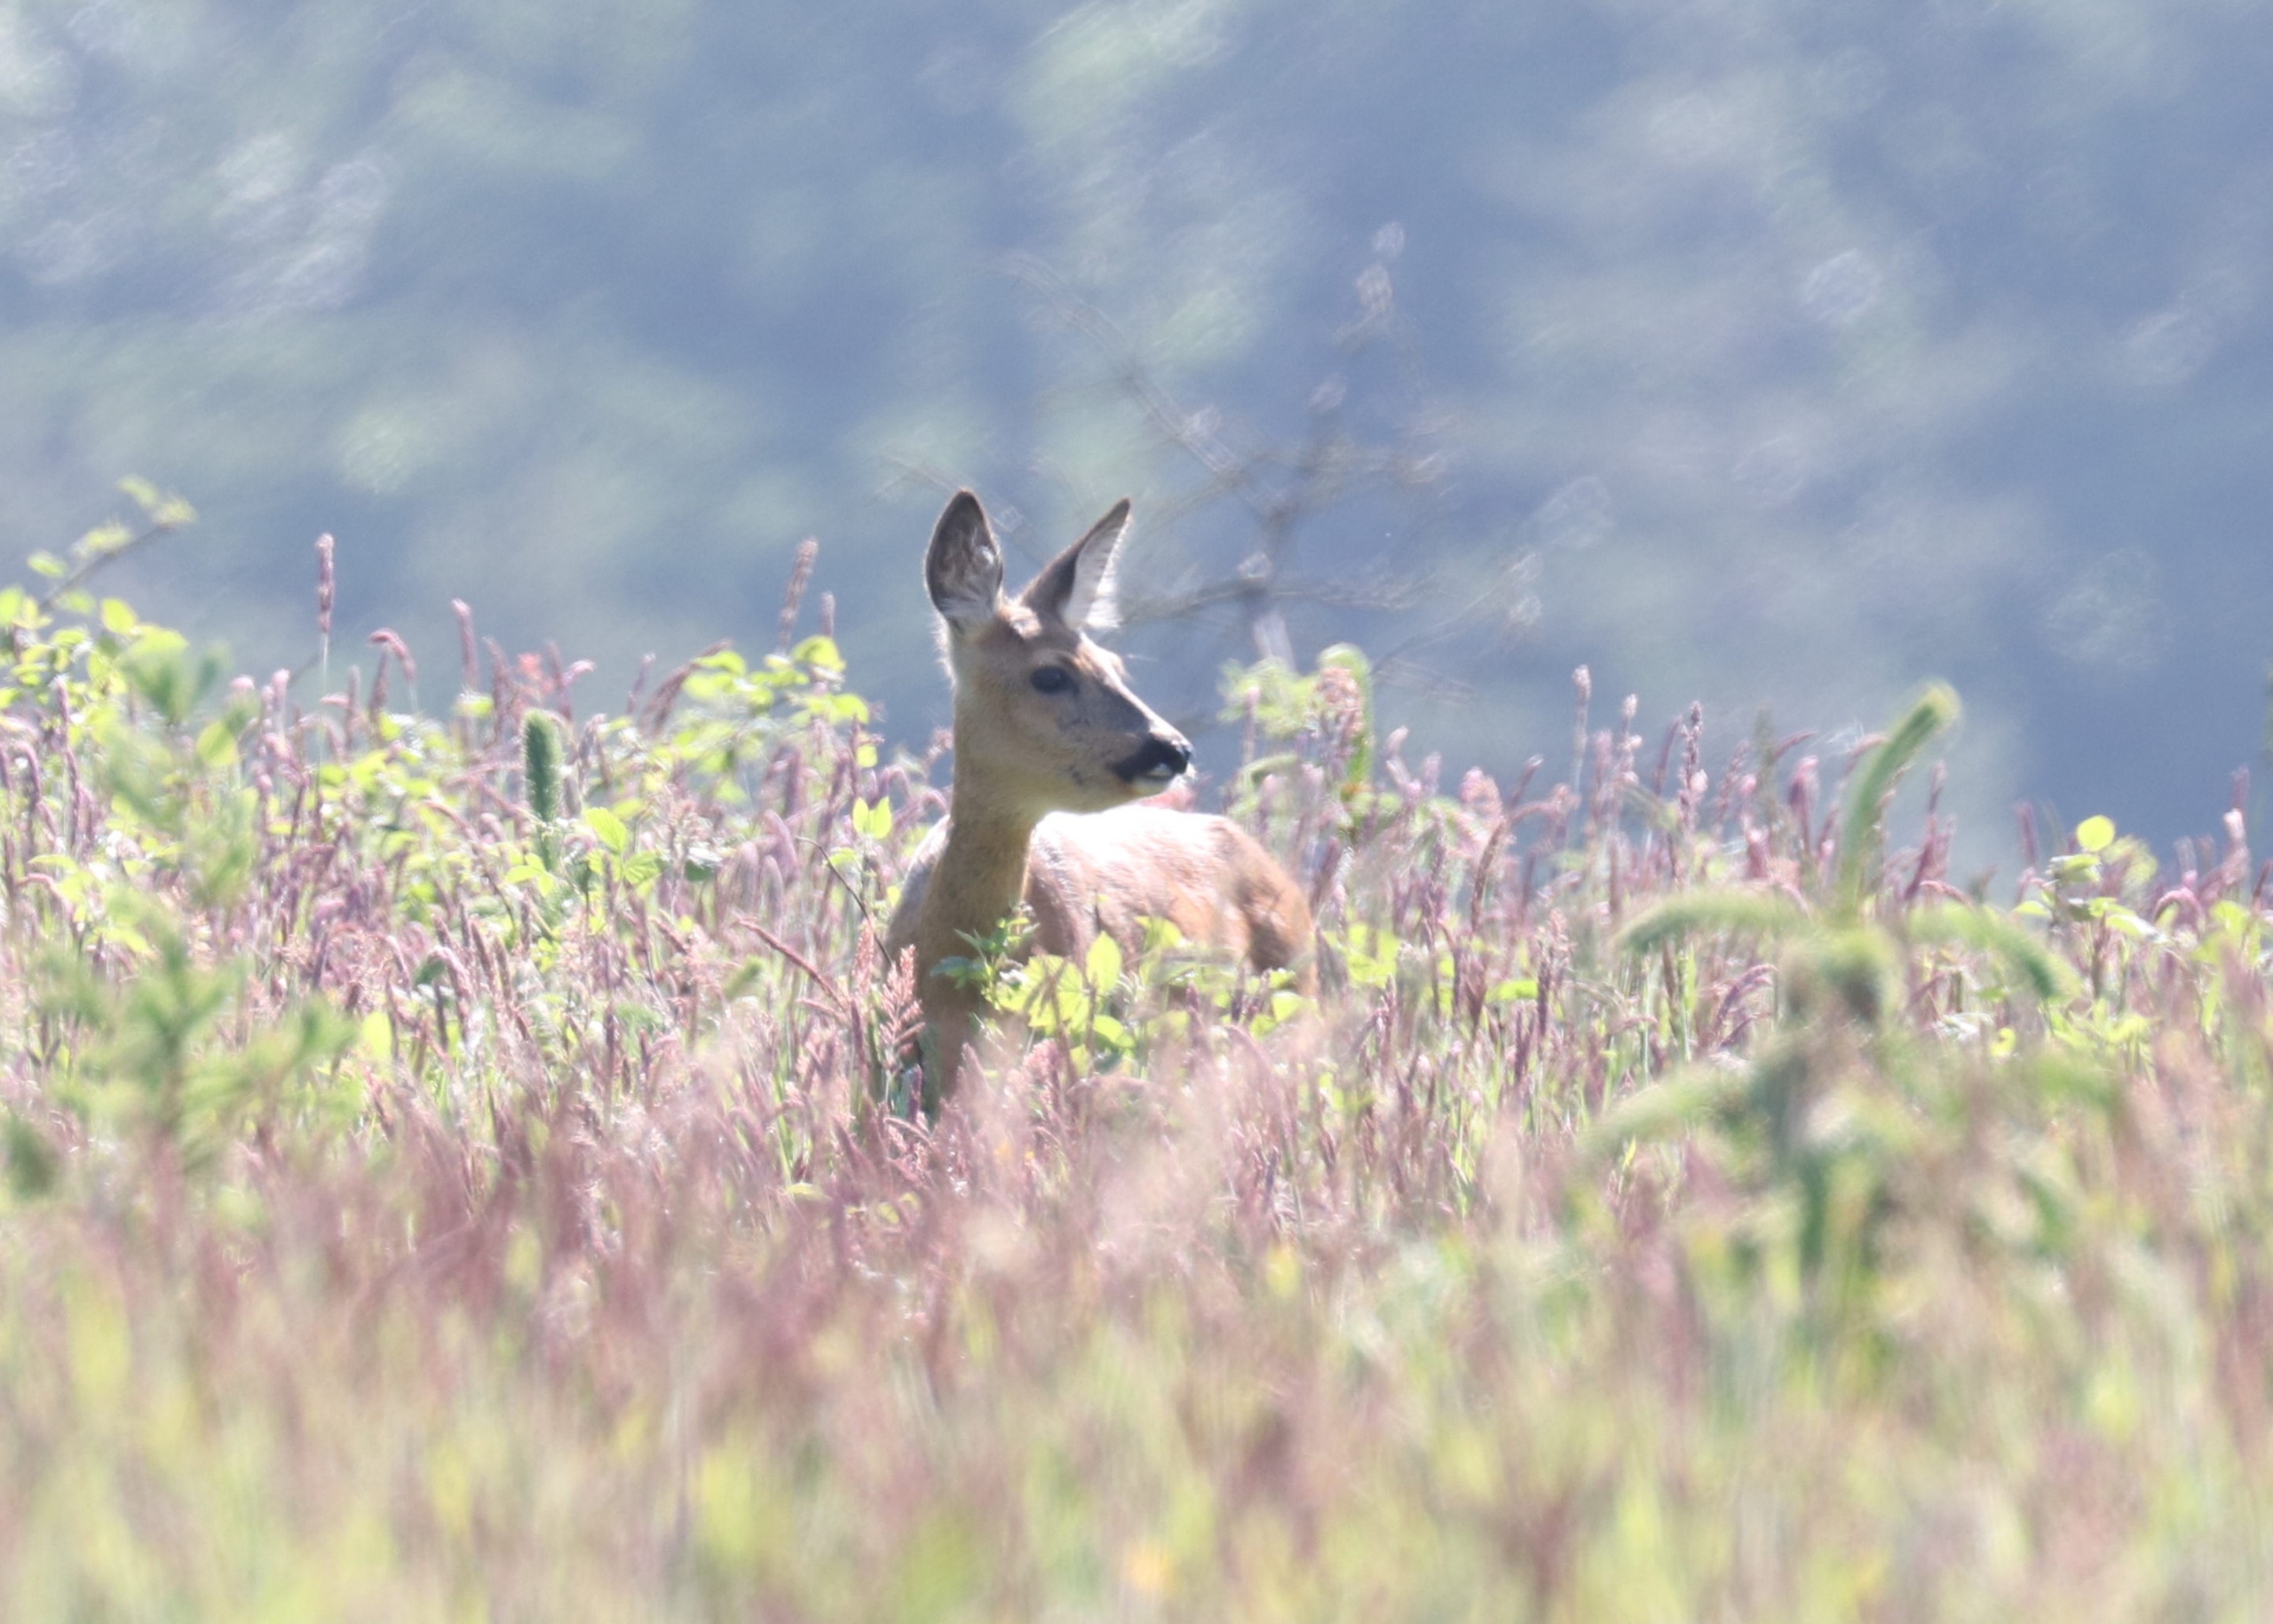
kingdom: Animalia
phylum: Chordata
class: Mammalia
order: Artiodactyla
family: Cervidae
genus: Capreolus
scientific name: Capreolus capreolus
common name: Rådyr
